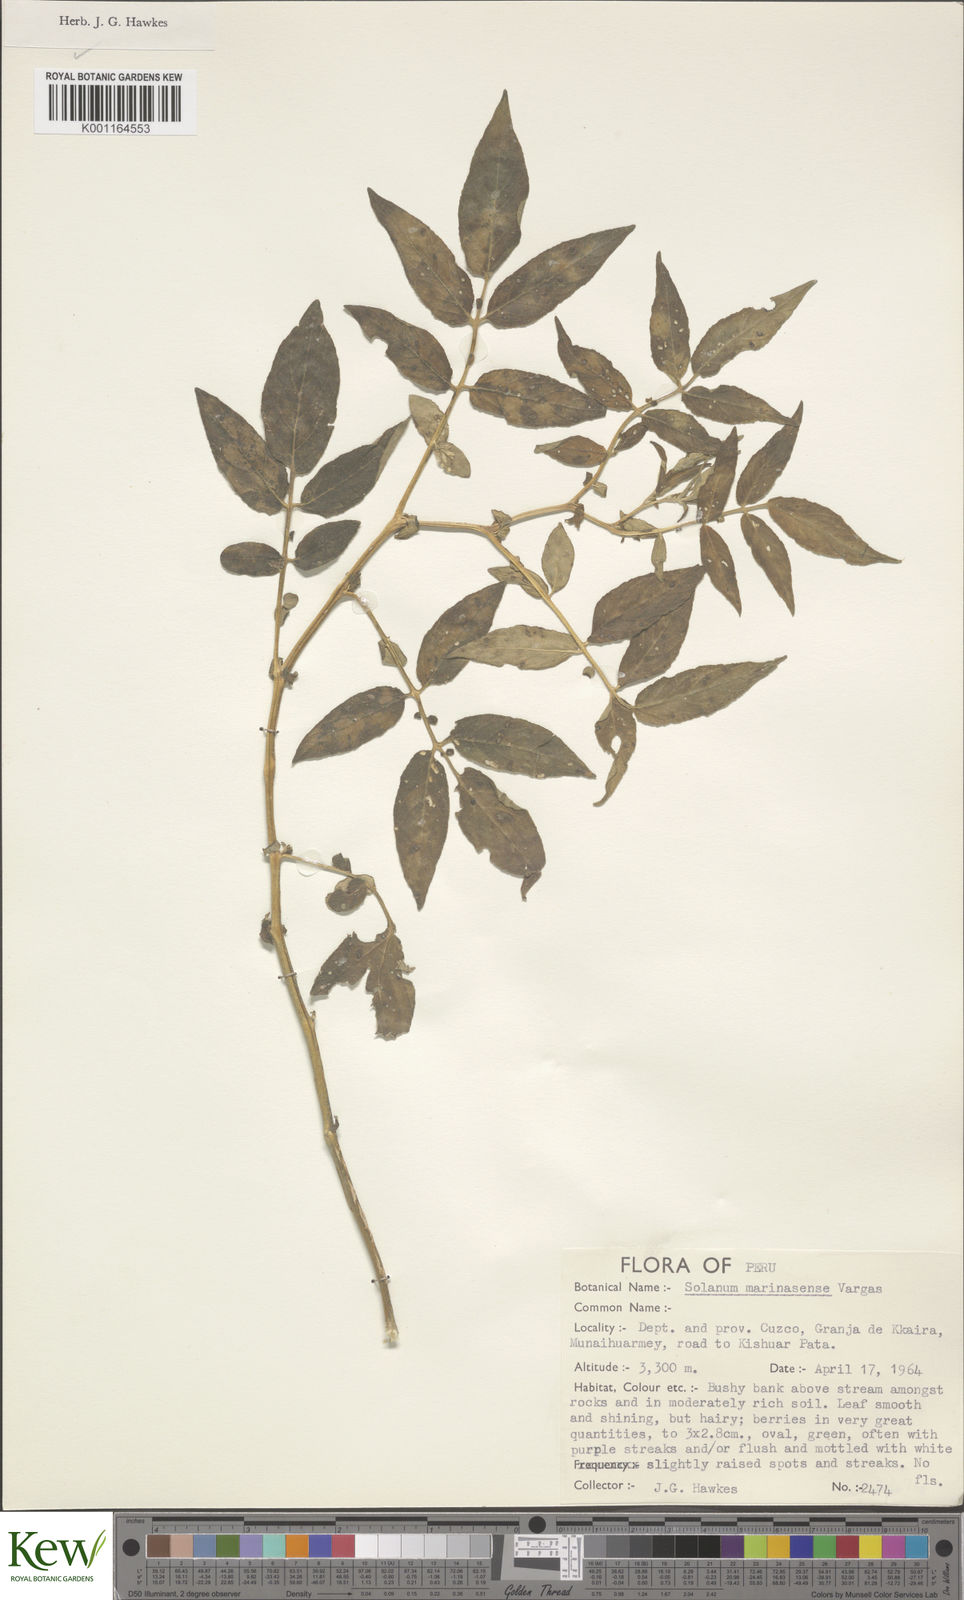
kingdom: Plantae
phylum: Tracheophyta
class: Magnoliopsida
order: Solanales
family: Solanaceae
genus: Solanum
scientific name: Solanum candolleanum
